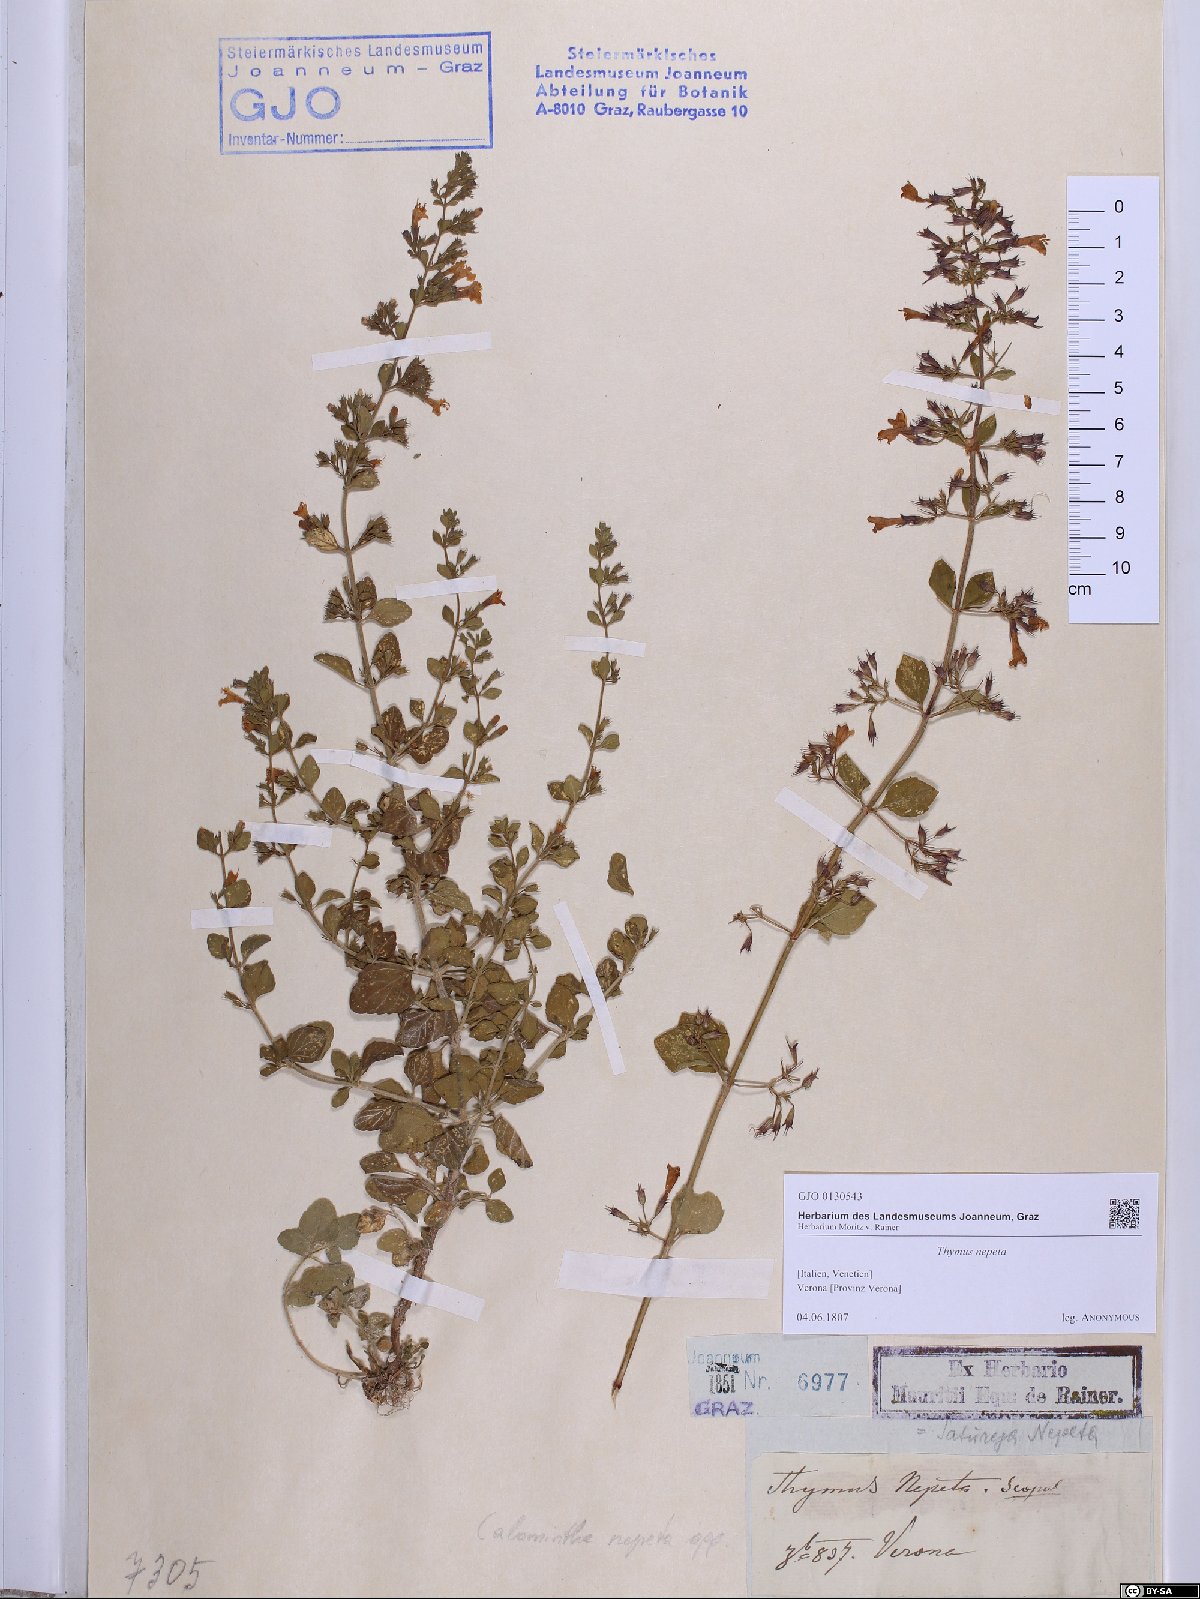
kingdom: Plantae
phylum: Tracheophyta
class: Magnoliopsida
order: Lamiales
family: Lamiaceae
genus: Clinopodium
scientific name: Clinopodium nepeta
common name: Lesser calamint
